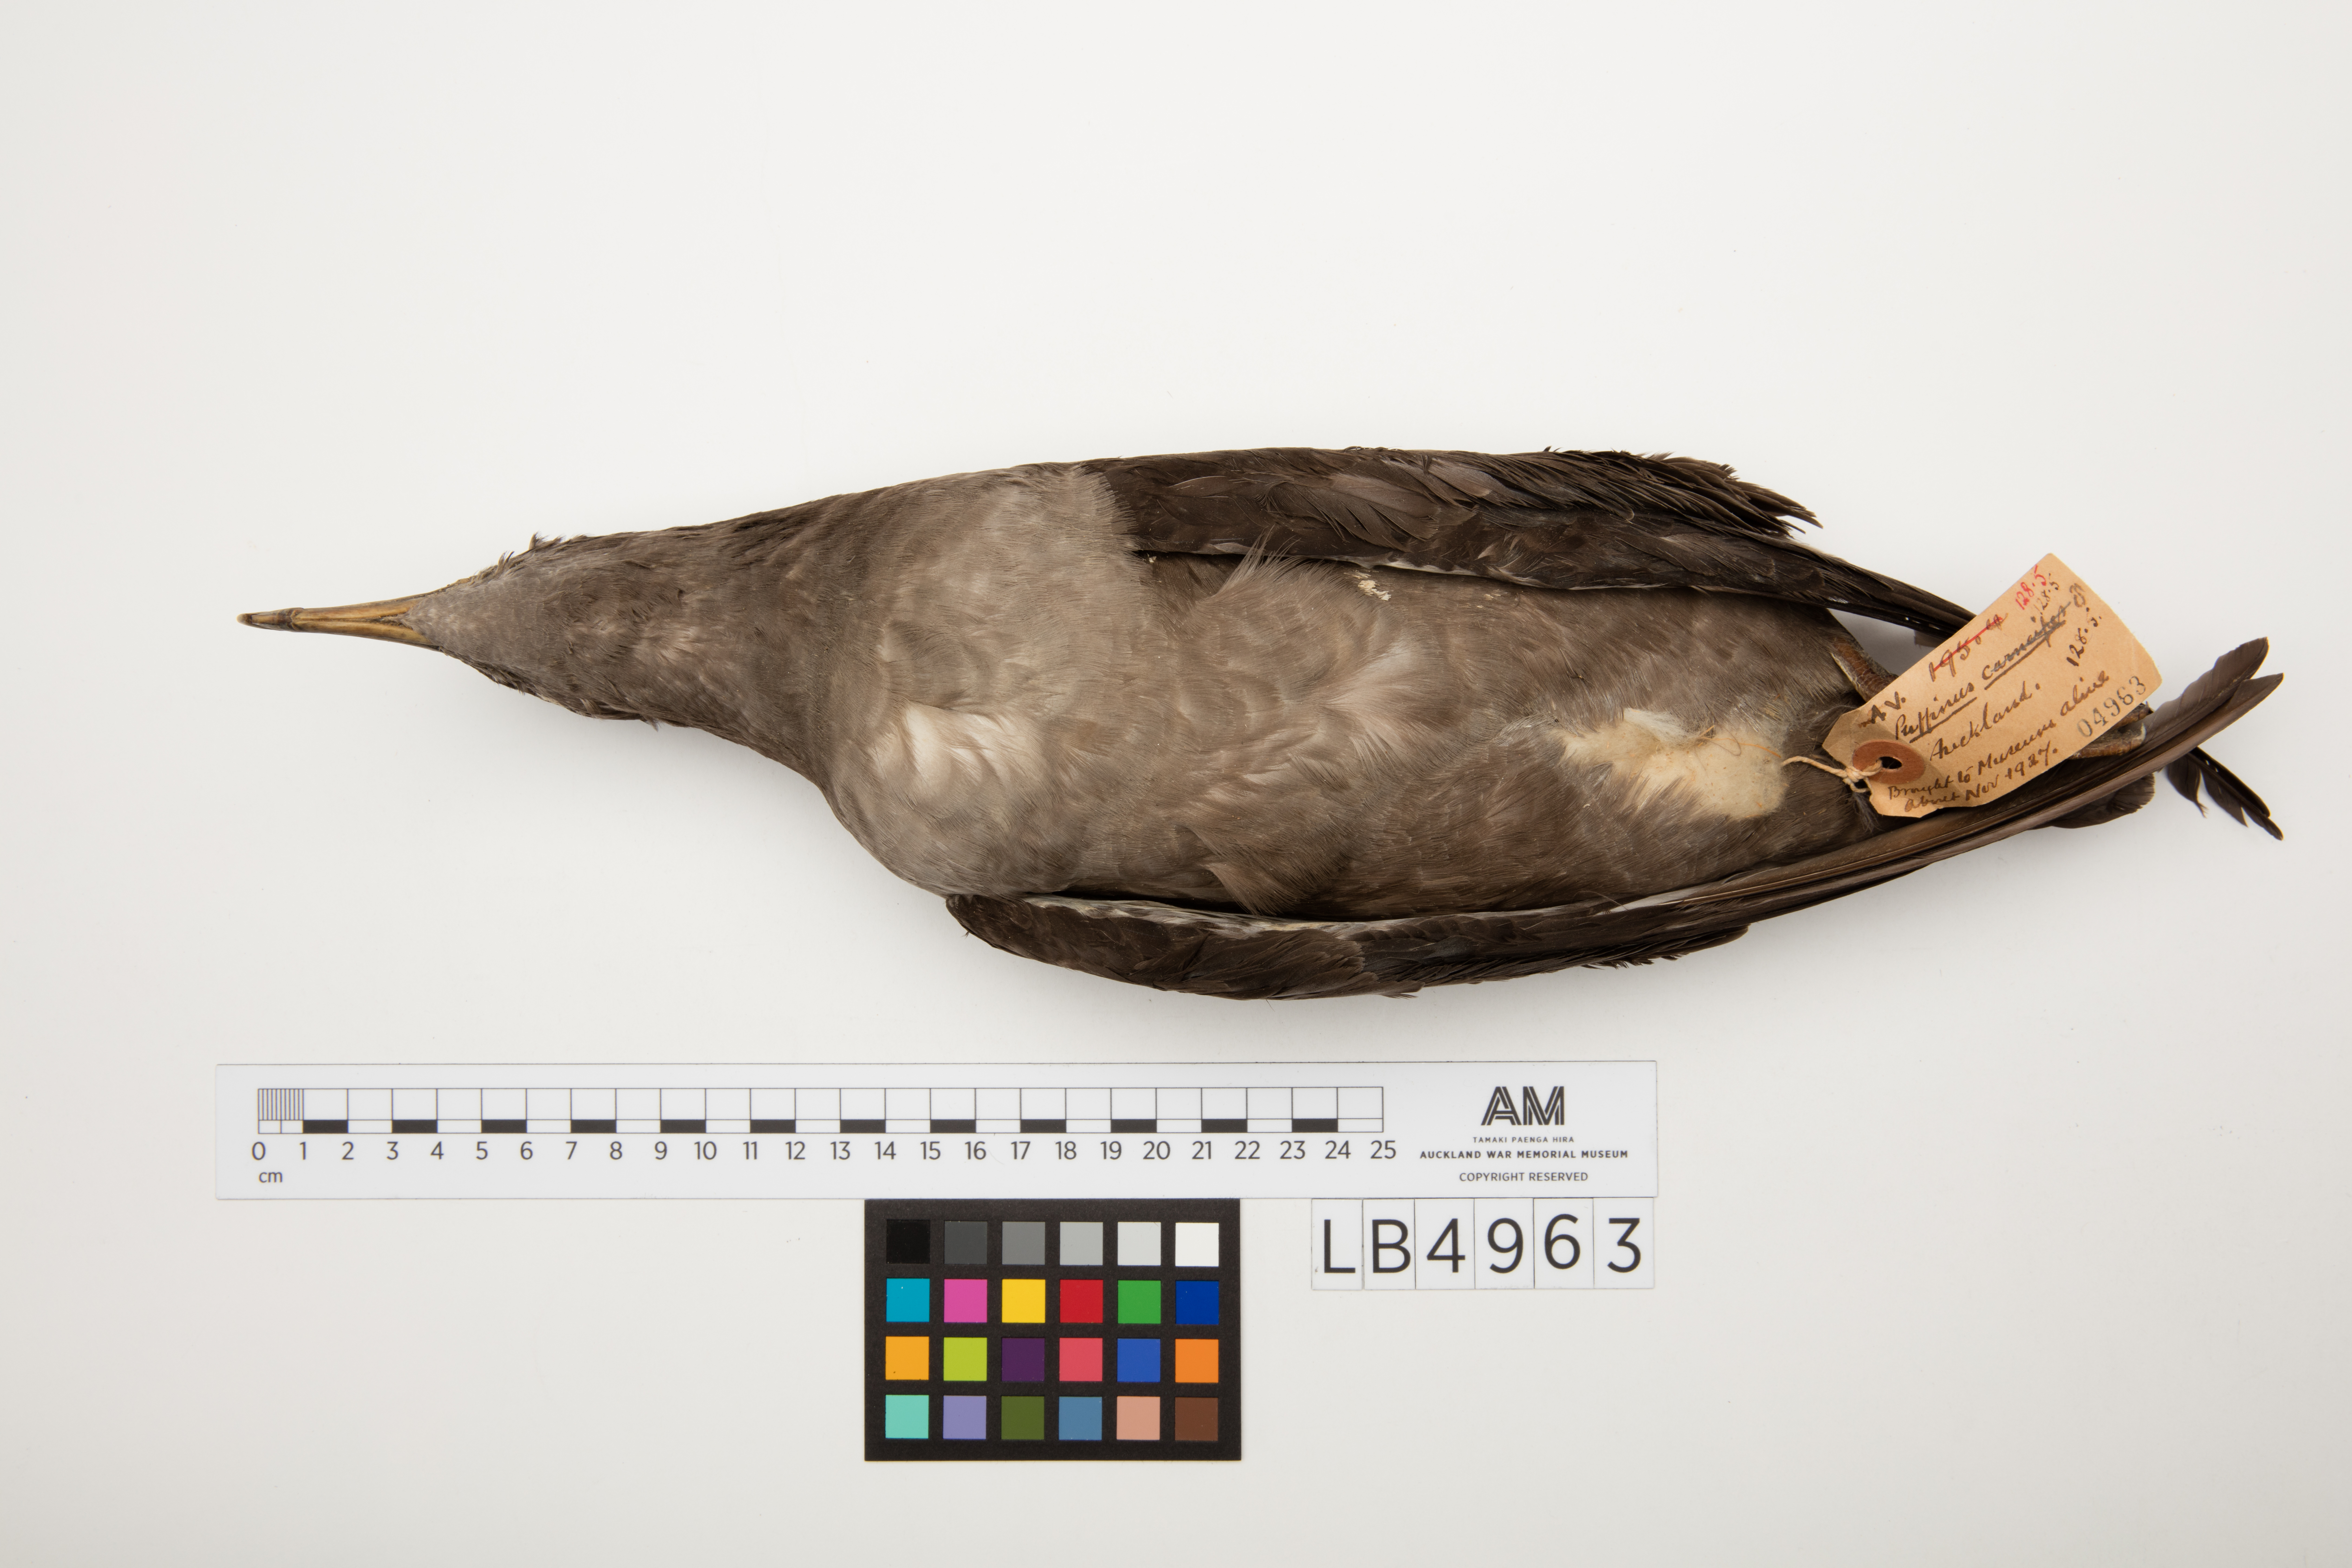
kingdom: Animalia
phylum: Chordata
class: Aves
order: Procellariiformes
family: Procellariidae
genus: Puffinus
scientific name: Puffinus griseus
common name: Sooty shearwater
